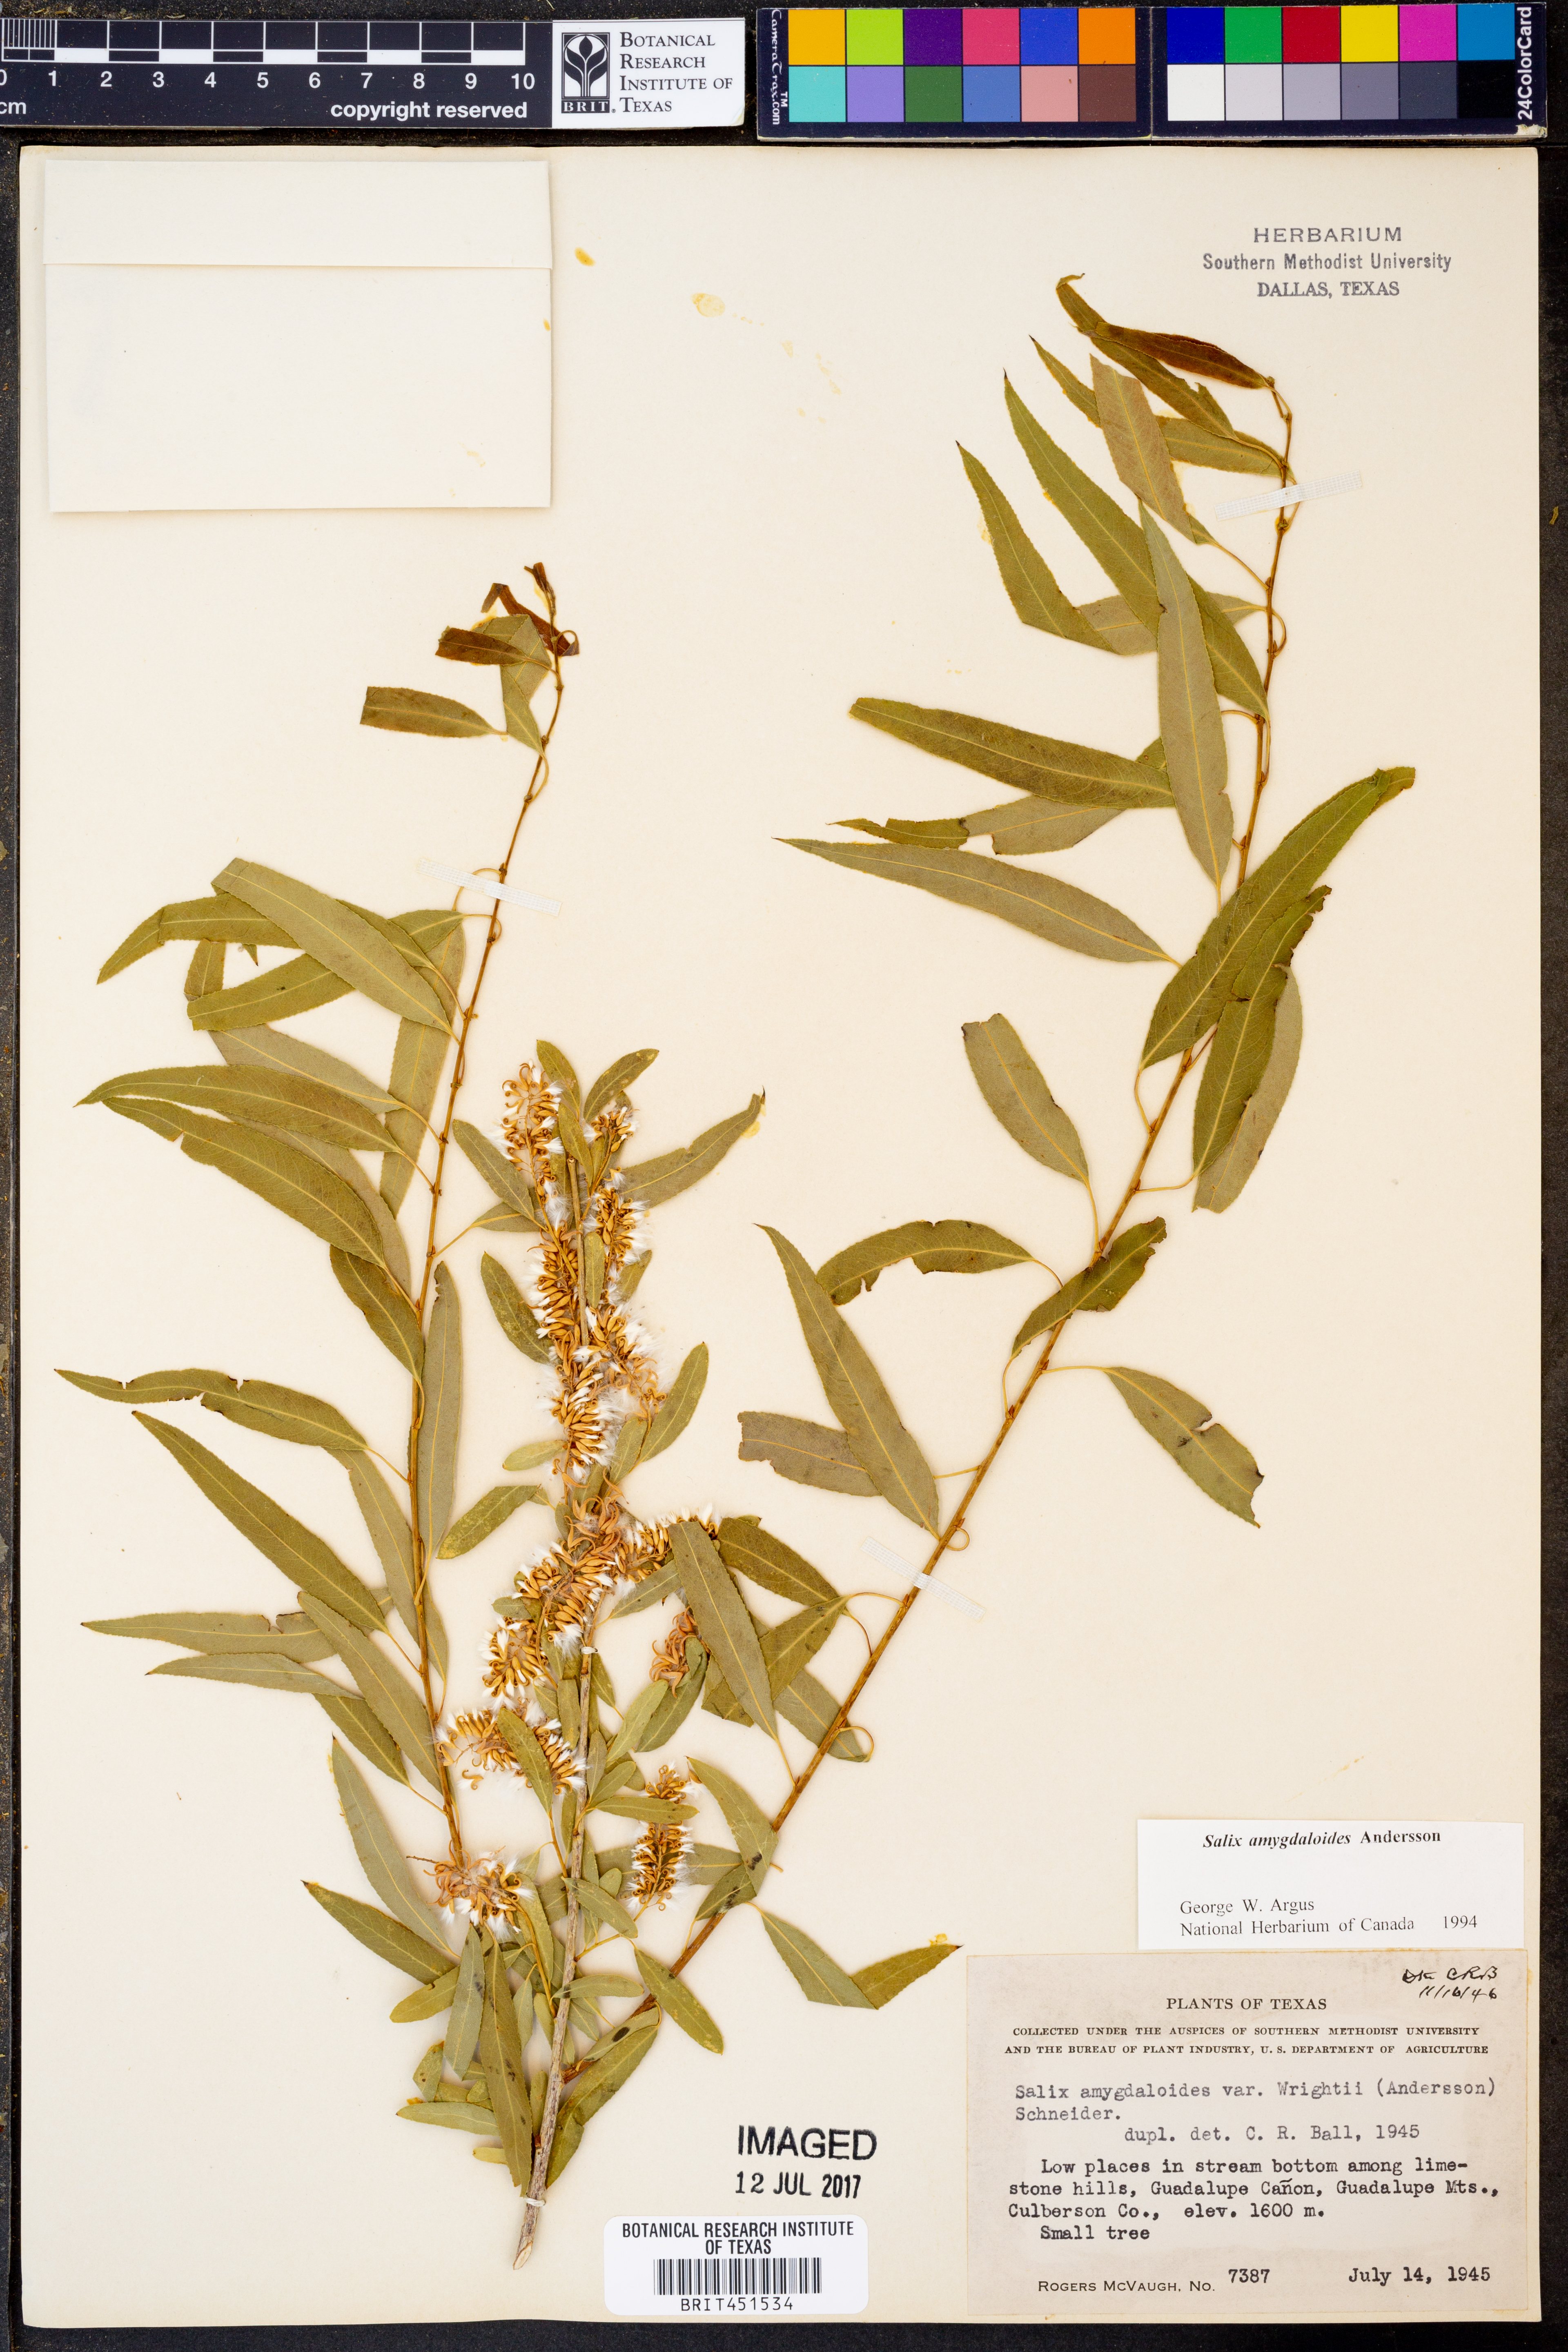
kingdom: Plantae
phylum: Tracheophyta
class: Magnoliopsida
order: Malpighiales
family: Salicaceae
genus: Salix
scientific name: Salix amygdaloides
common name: Peach leaf willow
